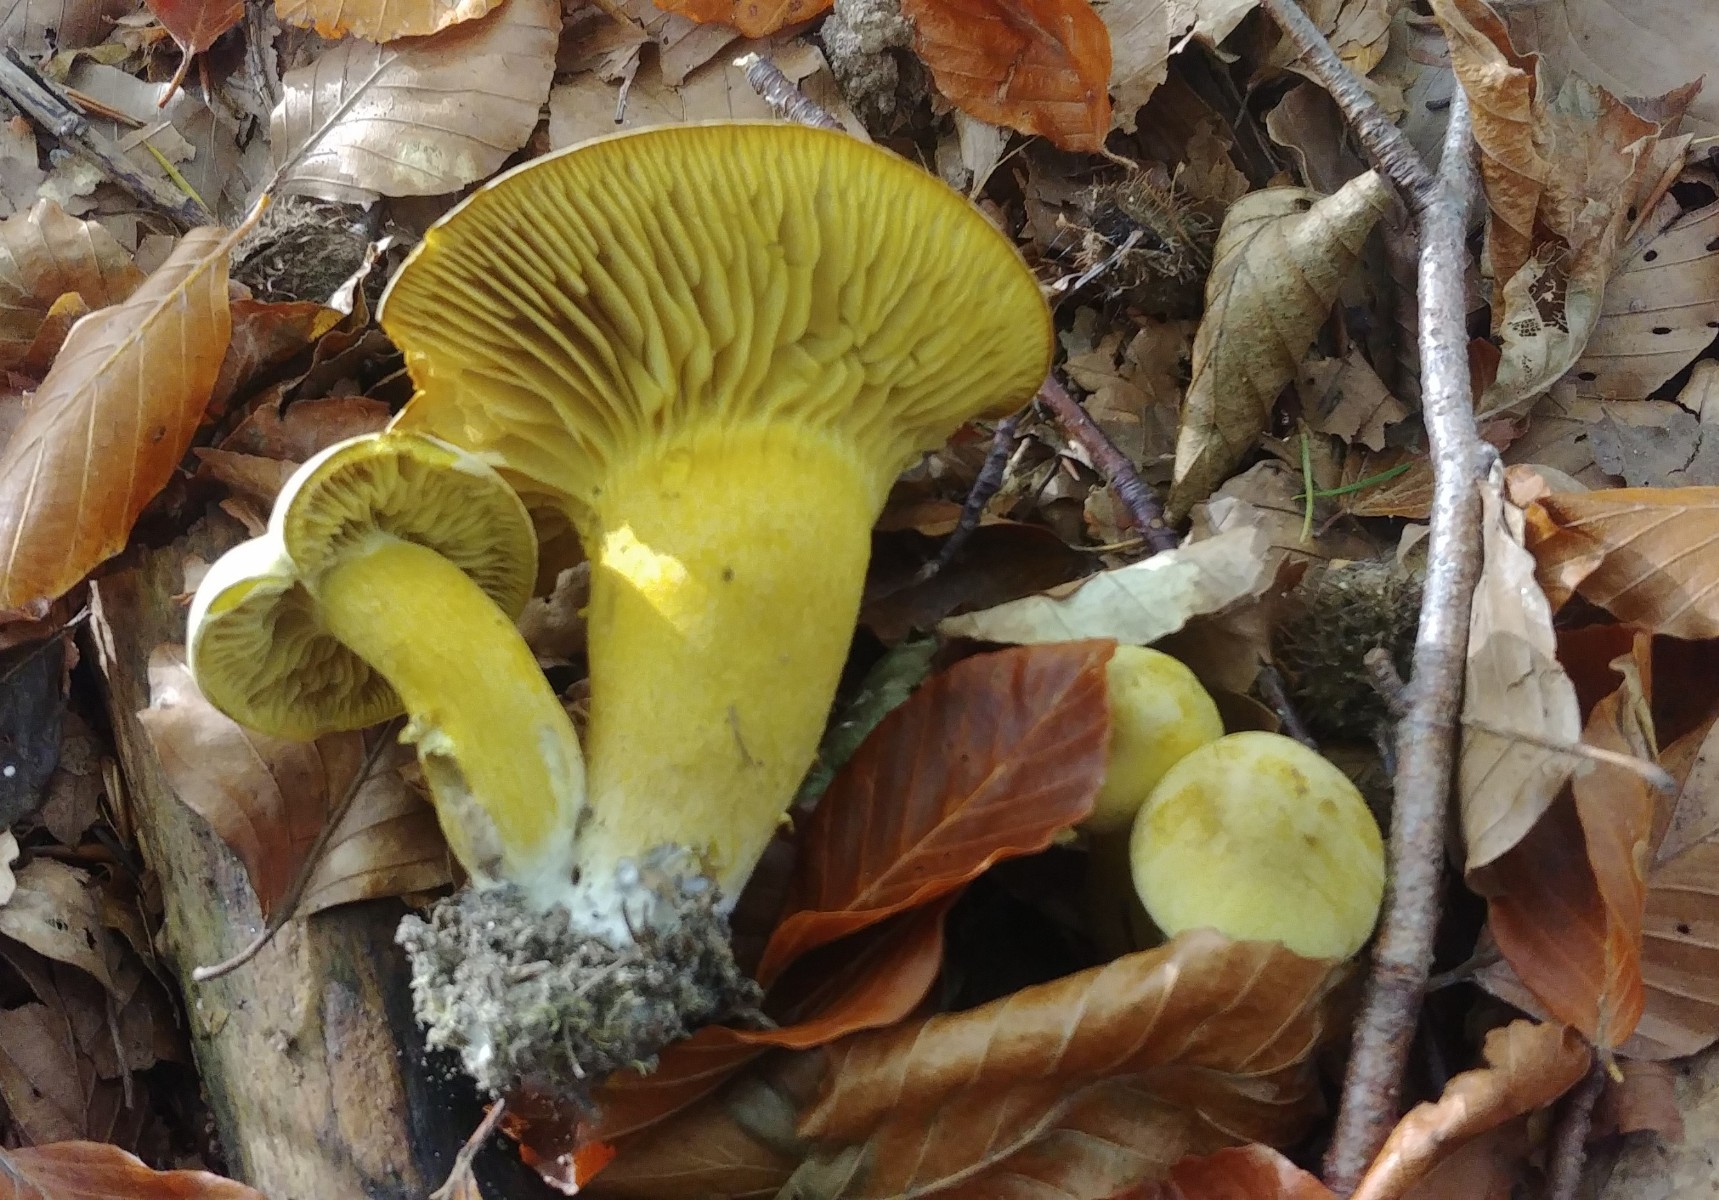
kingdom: Fungi
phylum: Basidiomycota
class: Agaricomycetes
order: Agaricales
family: Tricholomataceae
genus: Tricholoma
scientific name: Tricholoma sulphureum
